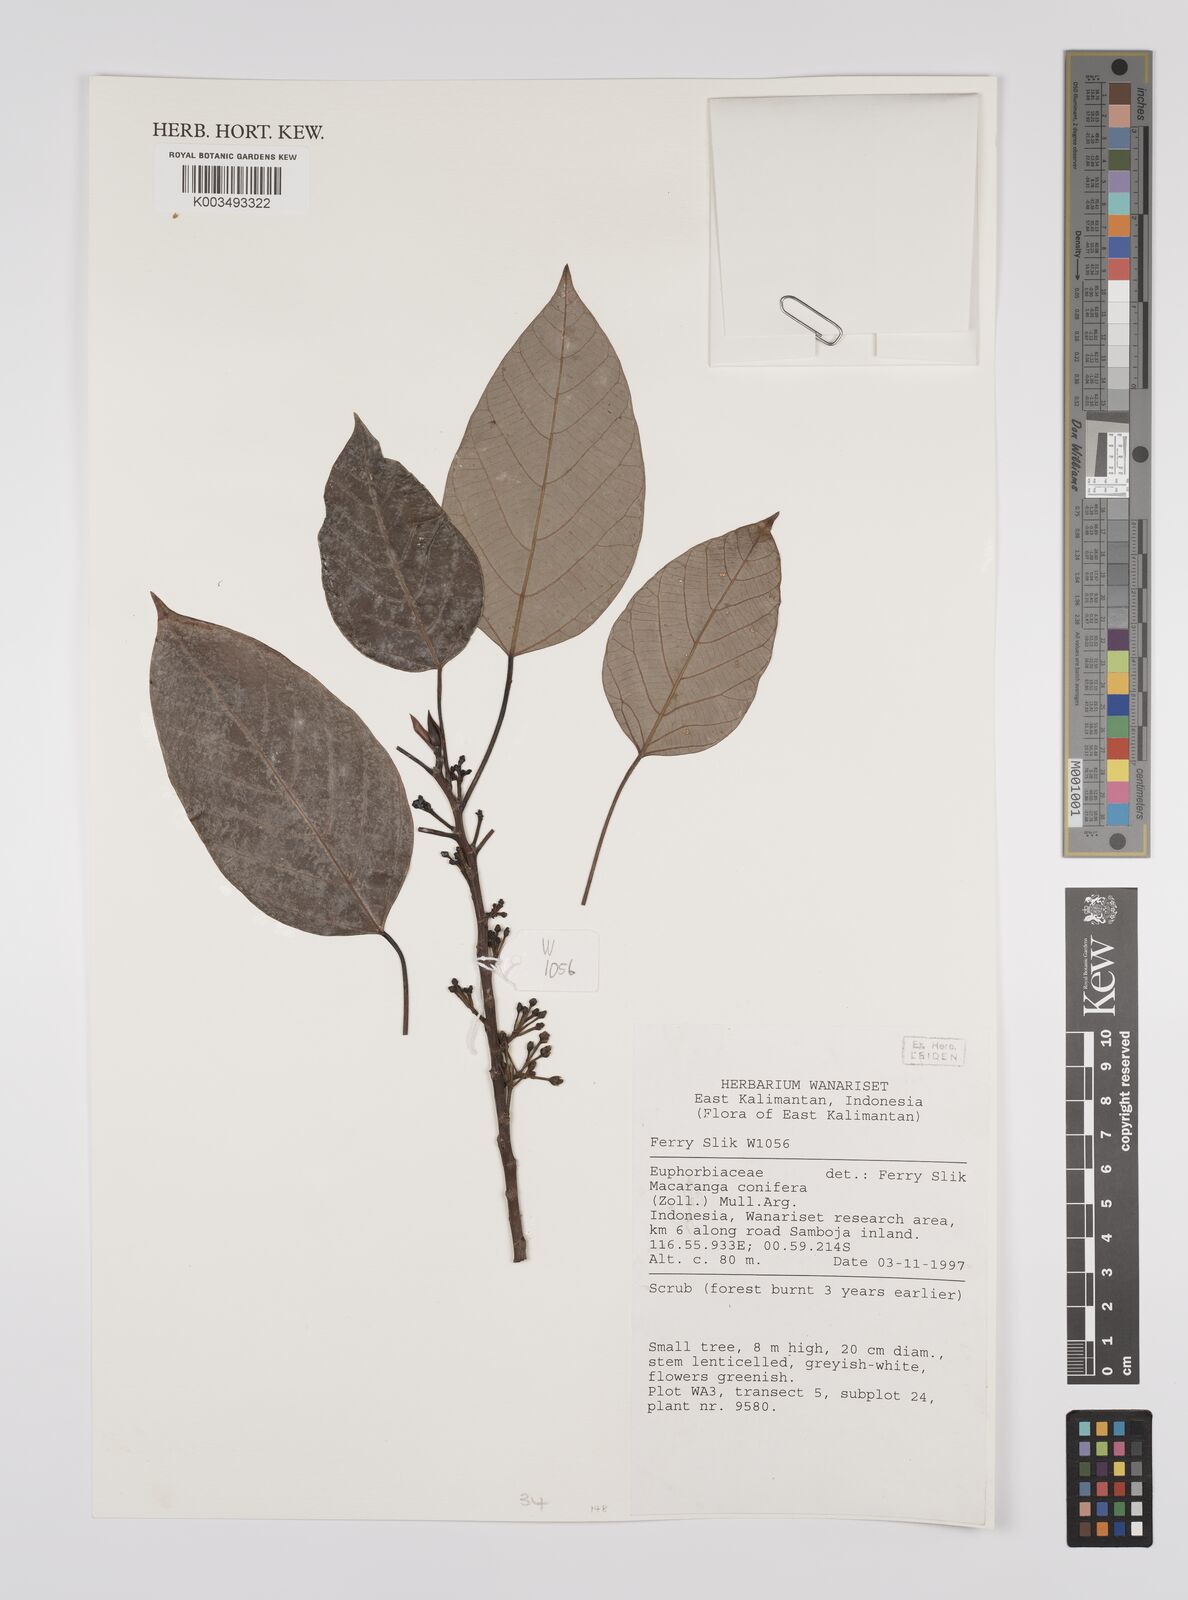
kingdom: Plantae
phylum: Tracheophyta
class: Magnoliopsida
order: Malpighiales
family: Euphorbiaceae
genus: Macaranga
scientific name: Macaranga conifera
